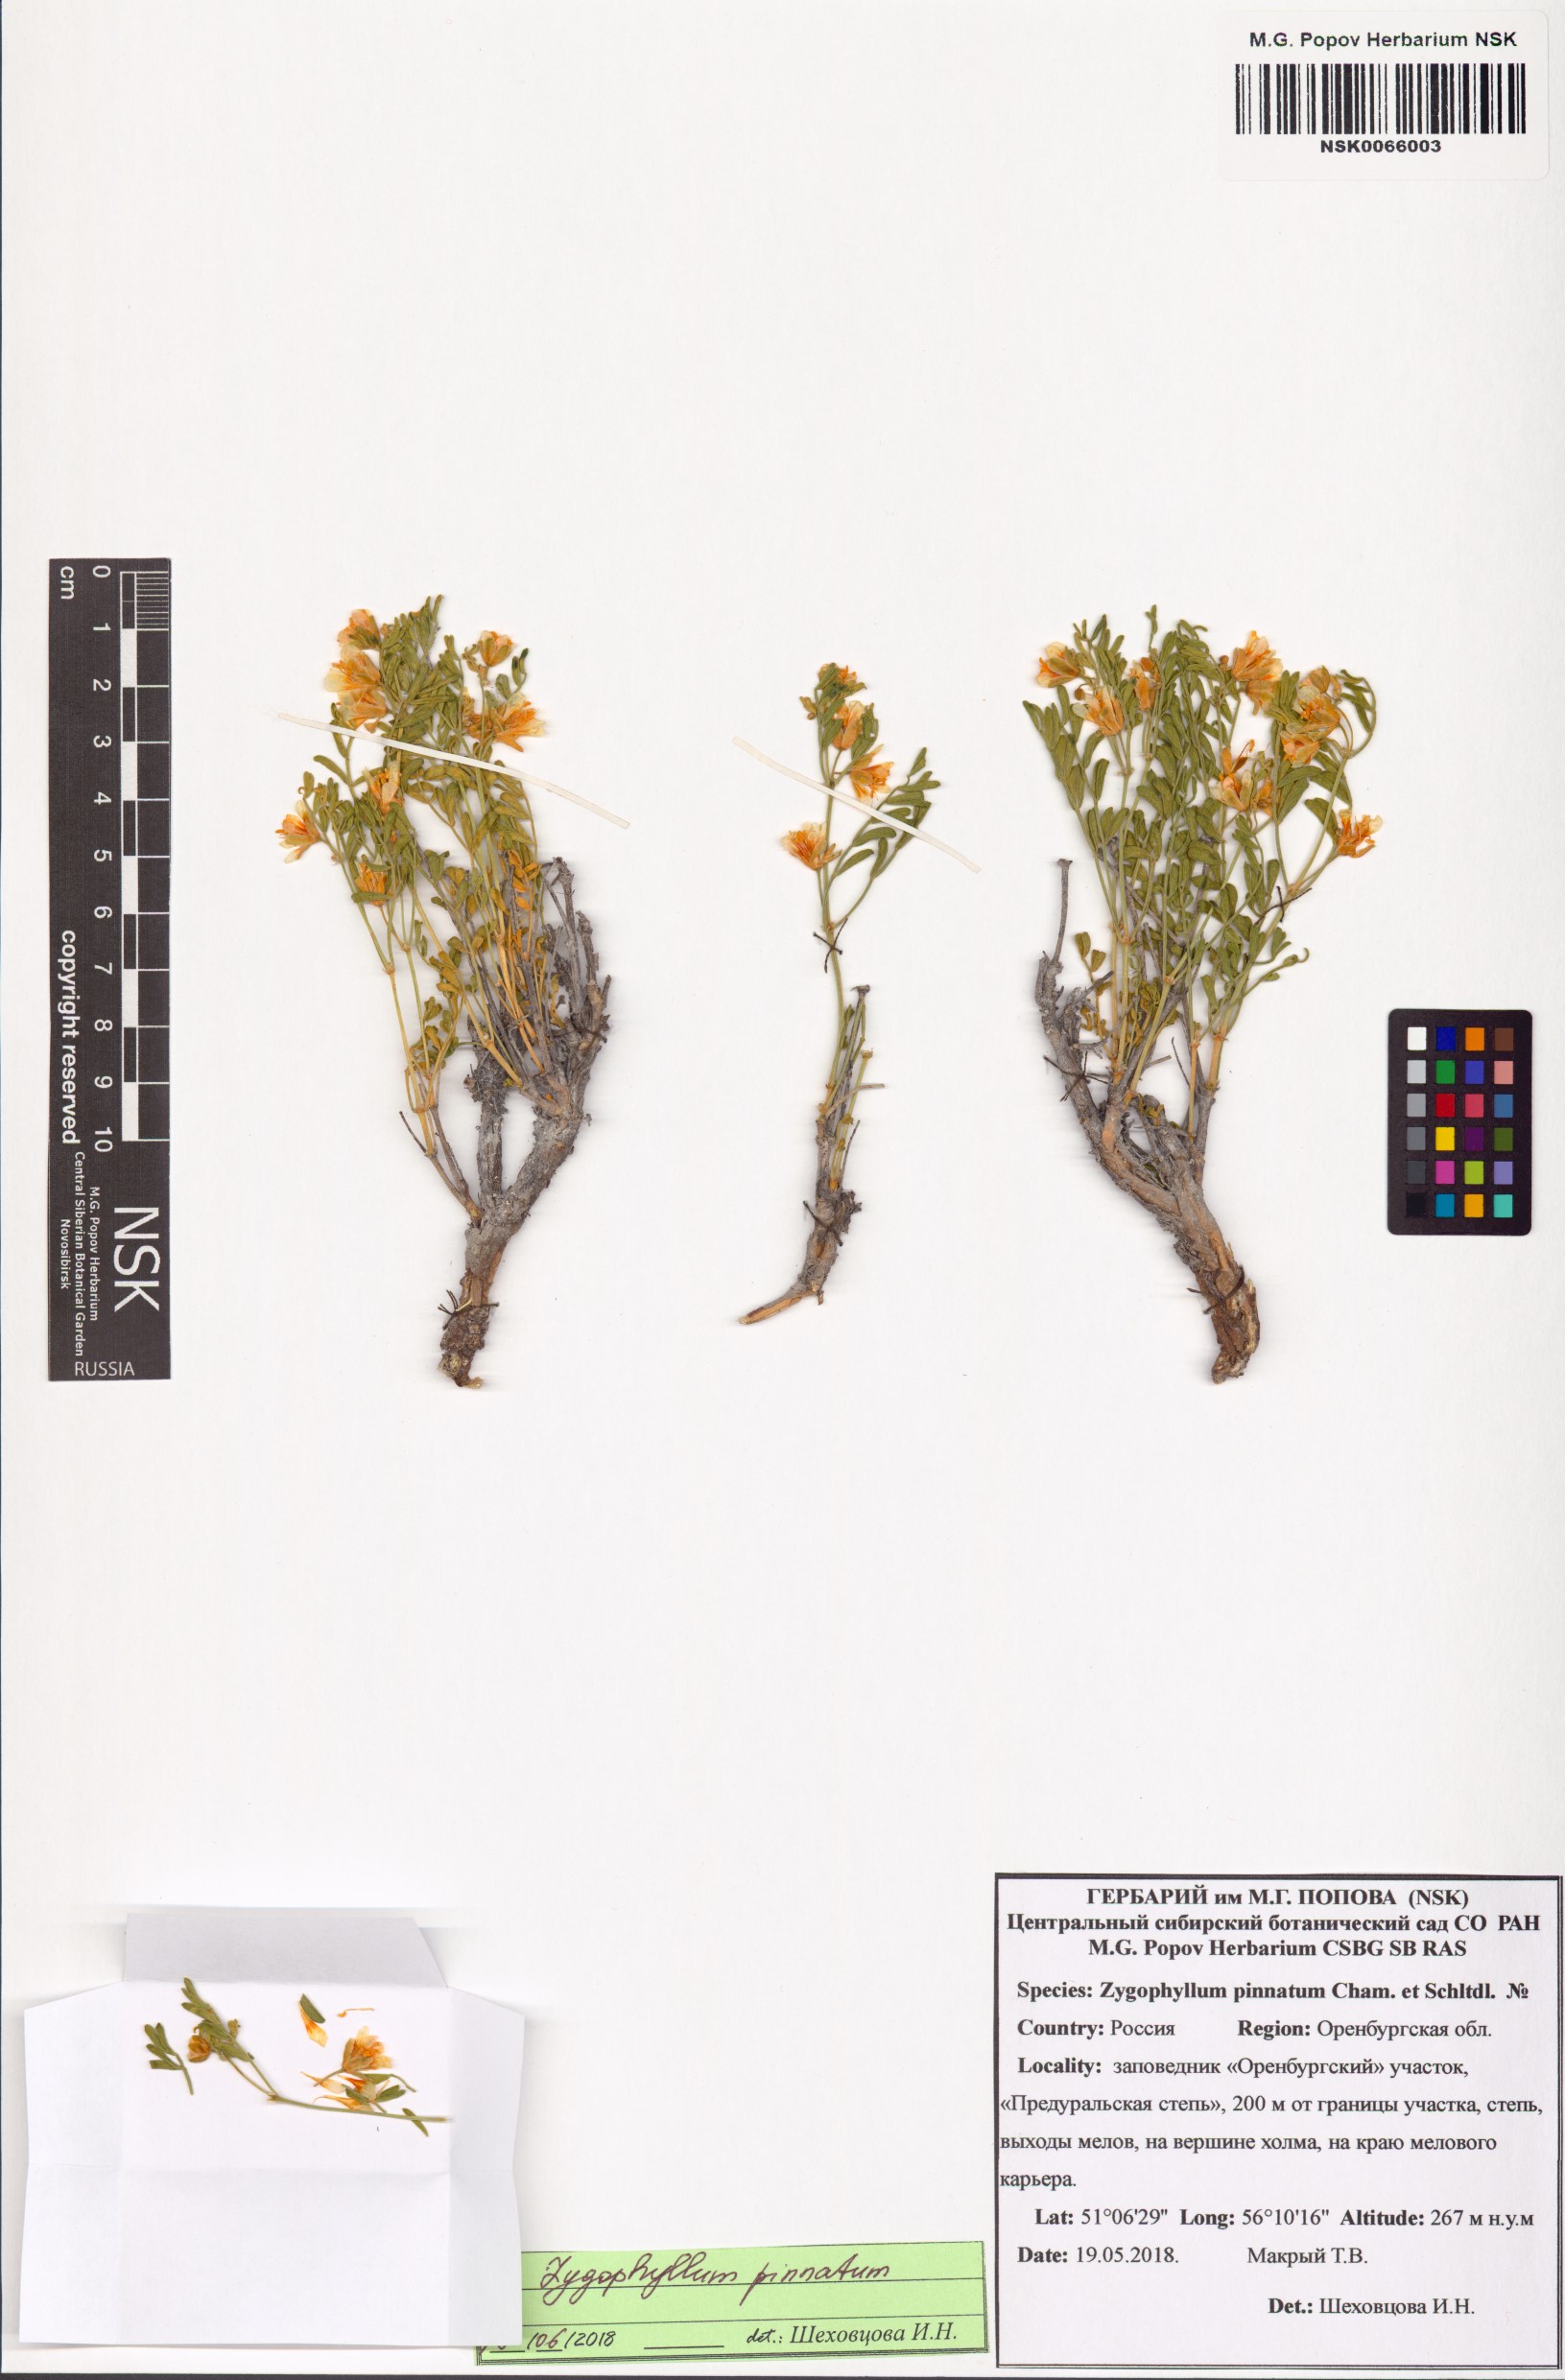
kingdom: Plantae
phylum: Tracheophyta
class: Magnoliopsida
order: Zygophyllales
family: Zygophyllaceae
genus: Zygophyllum
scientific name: Zygophyllum pinnatum
